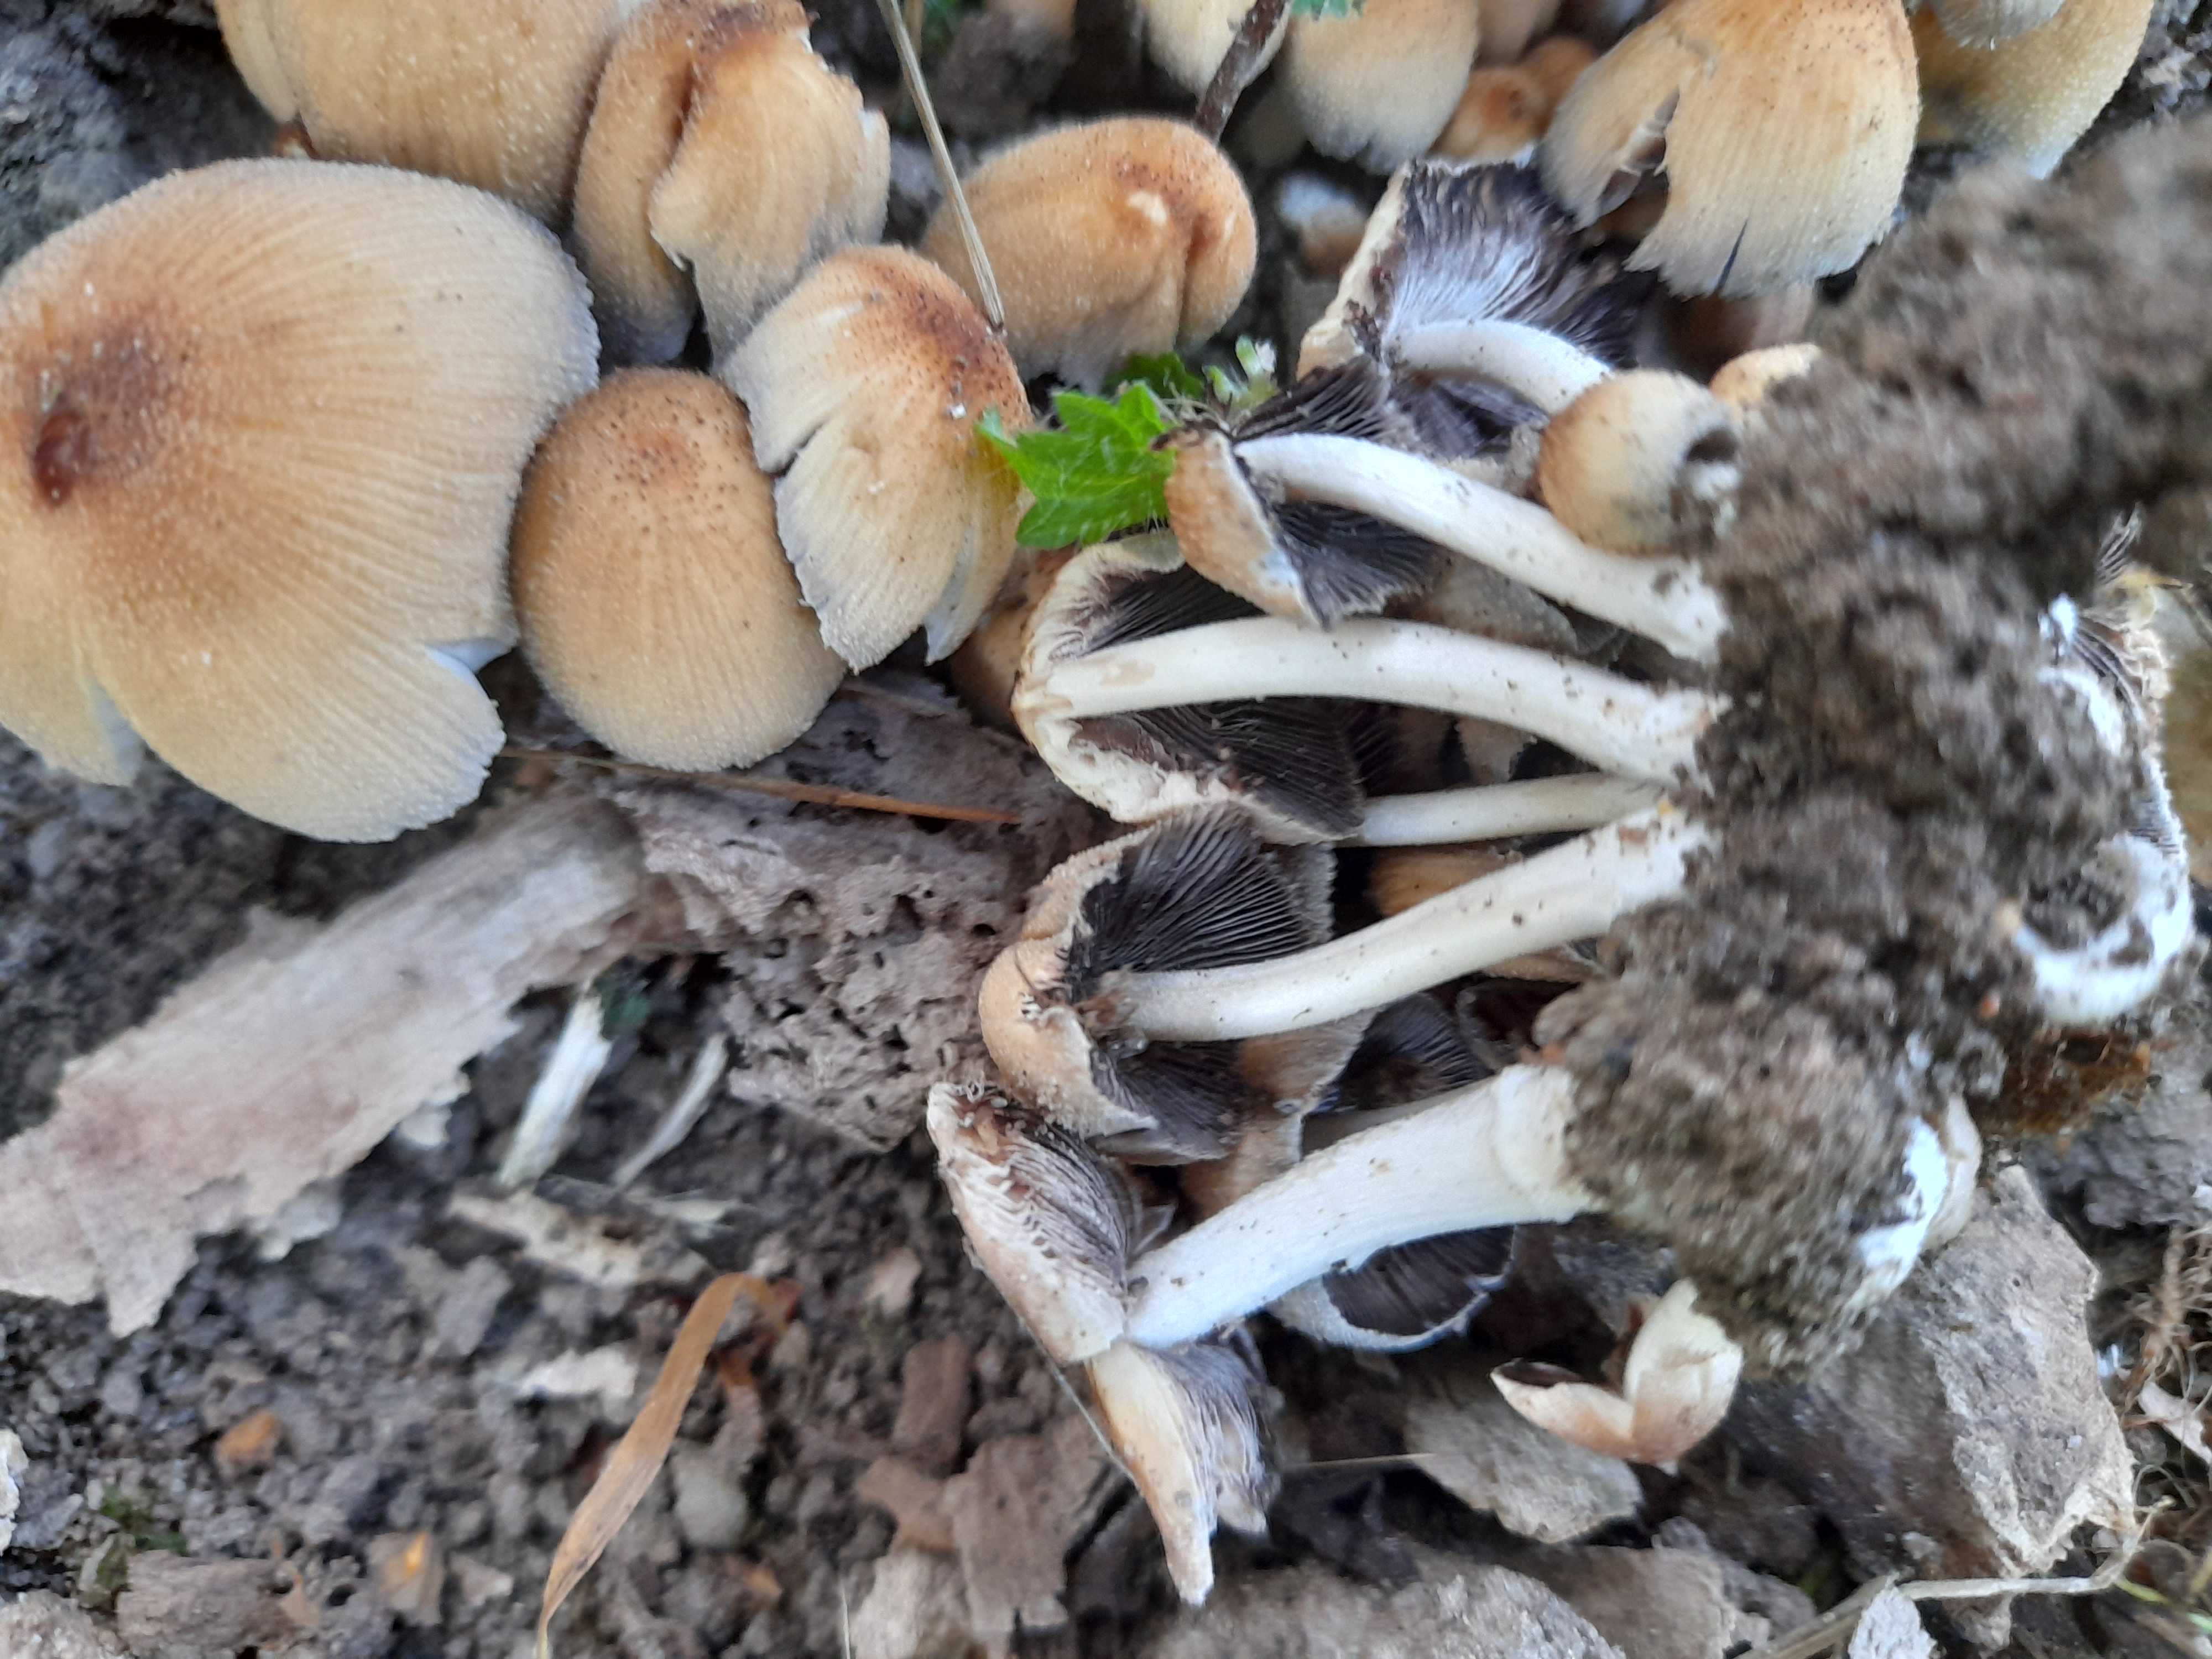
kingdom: Fungi
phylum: Basidiomycota
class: Agaricomycetes
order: Agaricales
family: Psathyrellaceae
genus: Coprinellus
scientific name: Coprinellus micaceus
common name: glimmer-blækhat
